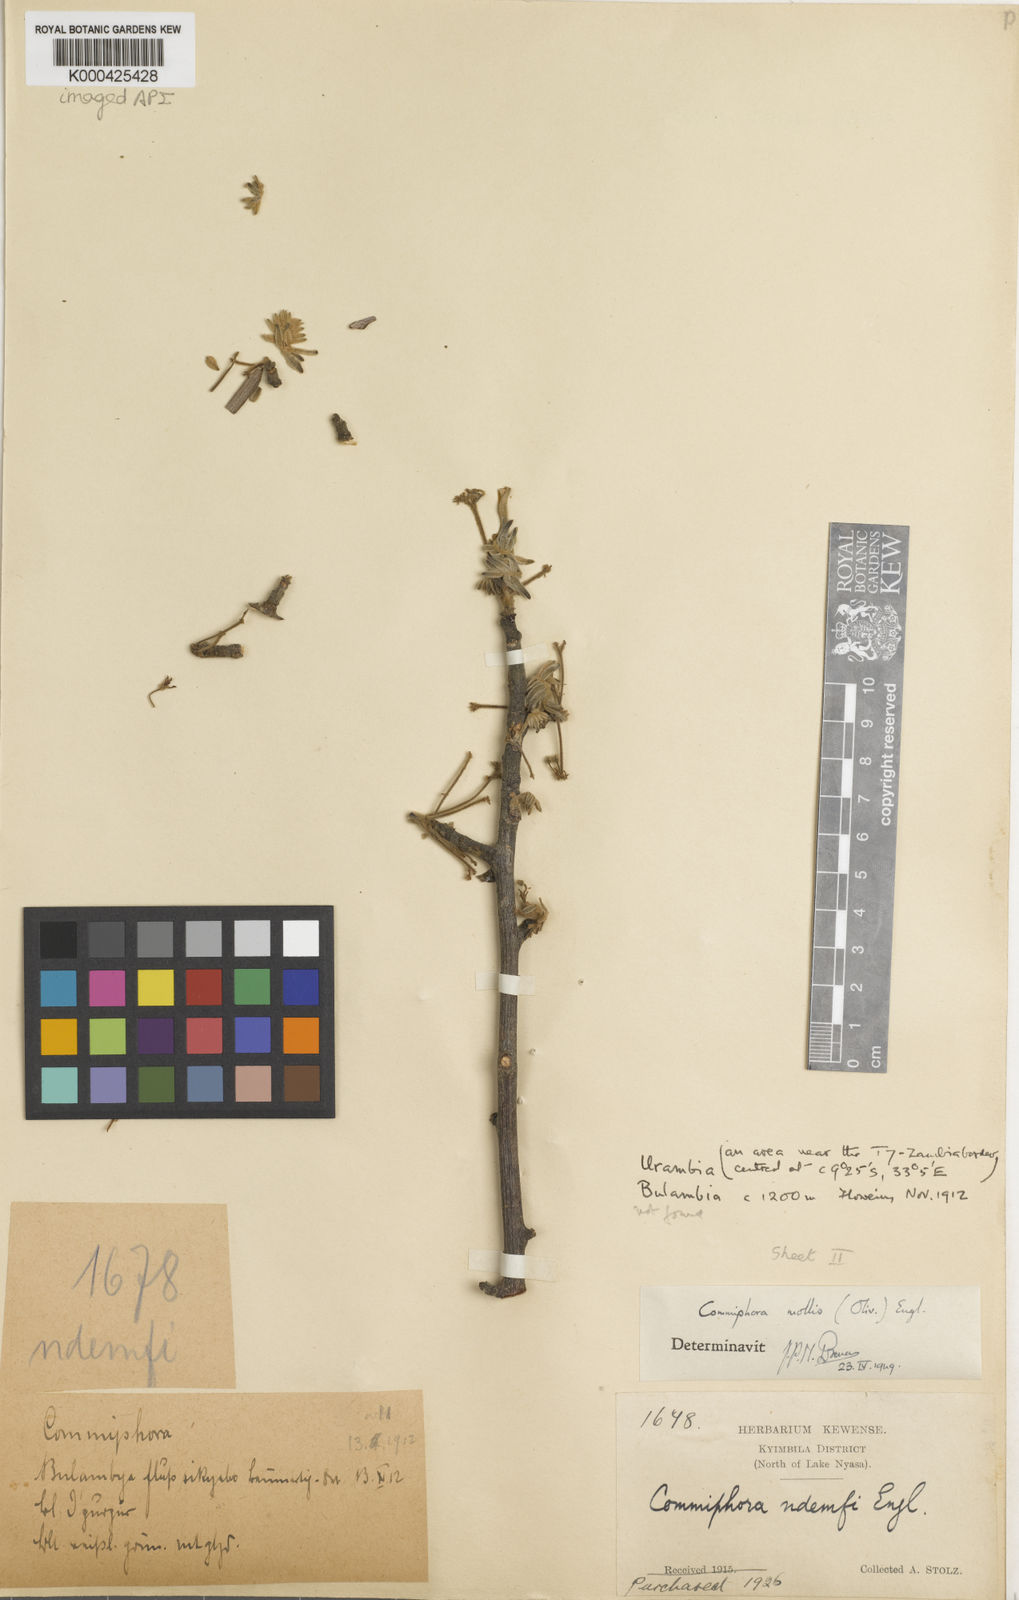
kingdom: Plantae
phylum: Tracheophyta
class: Magnoliopsida
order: Sapindales
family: Burseraceae
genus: Commiphora
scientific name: Commiphora mollis
